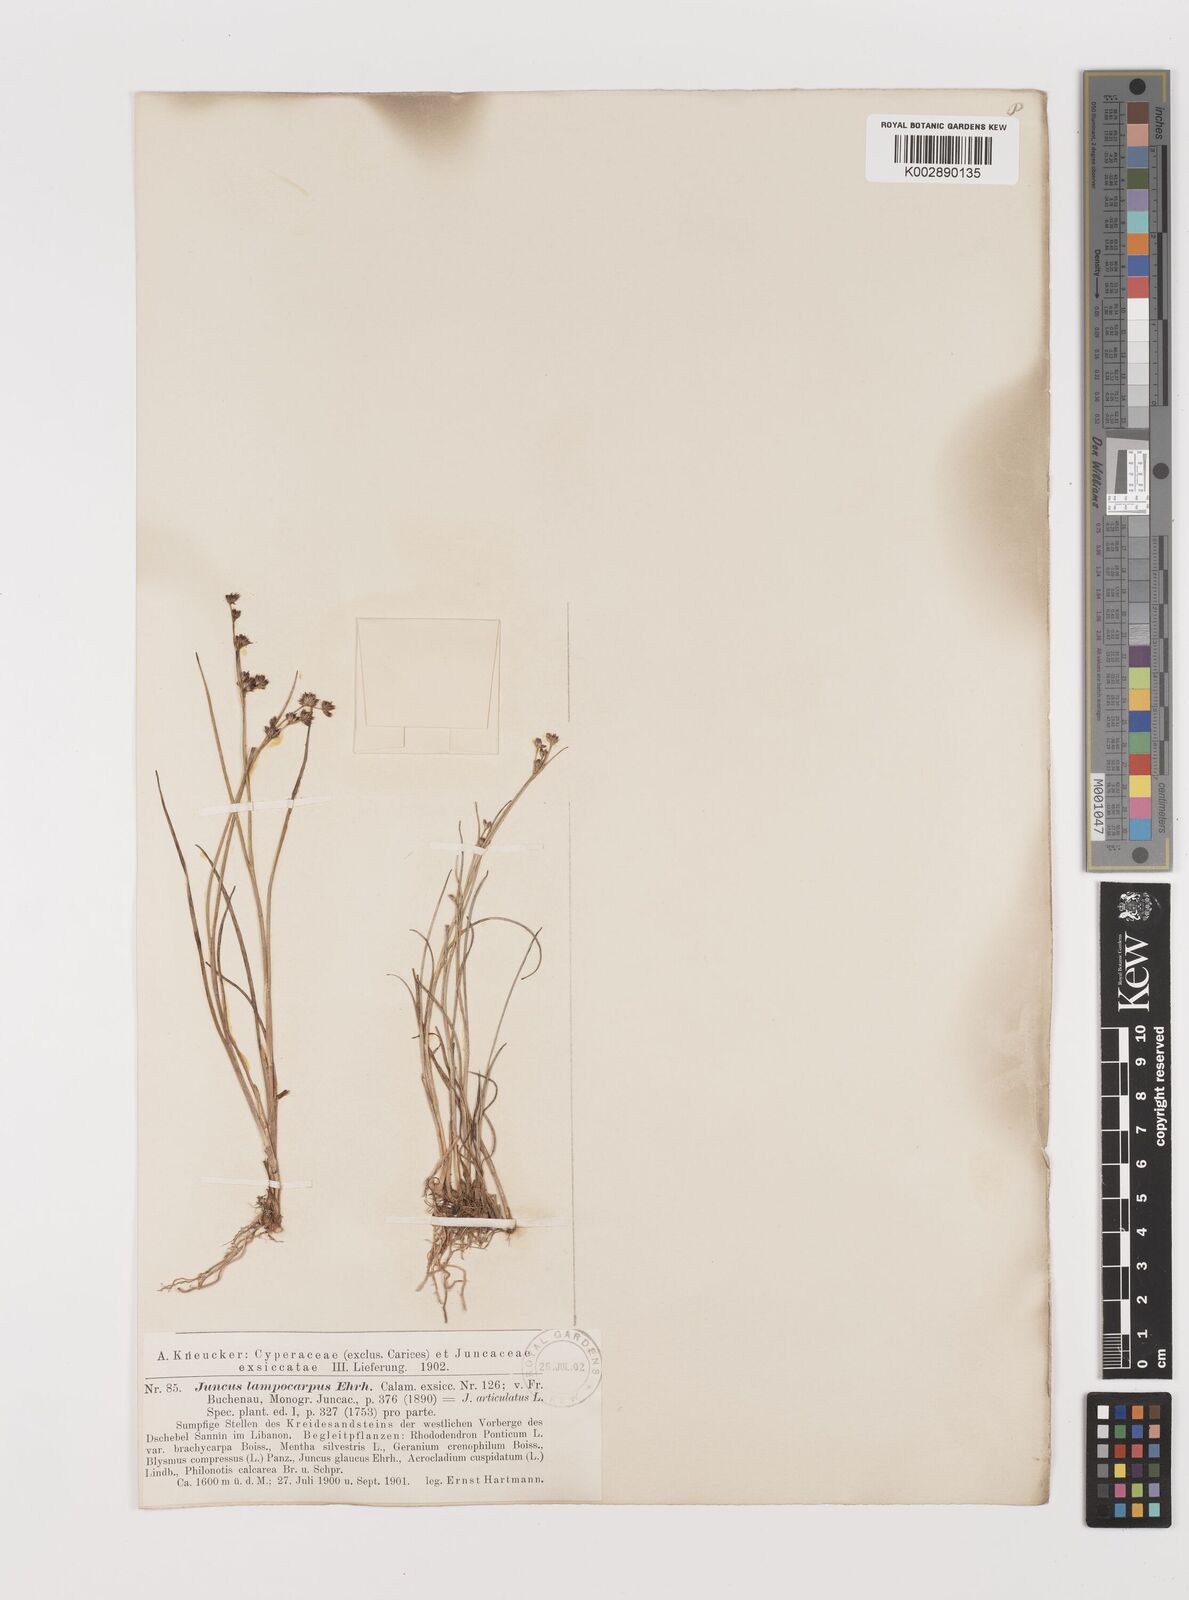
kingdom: Plantae
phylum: Tracheophyta
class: Liliopsida
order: Poales
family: Juncaceae
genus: Juncus
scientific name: Juncus articulatus
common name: Jointed rush
